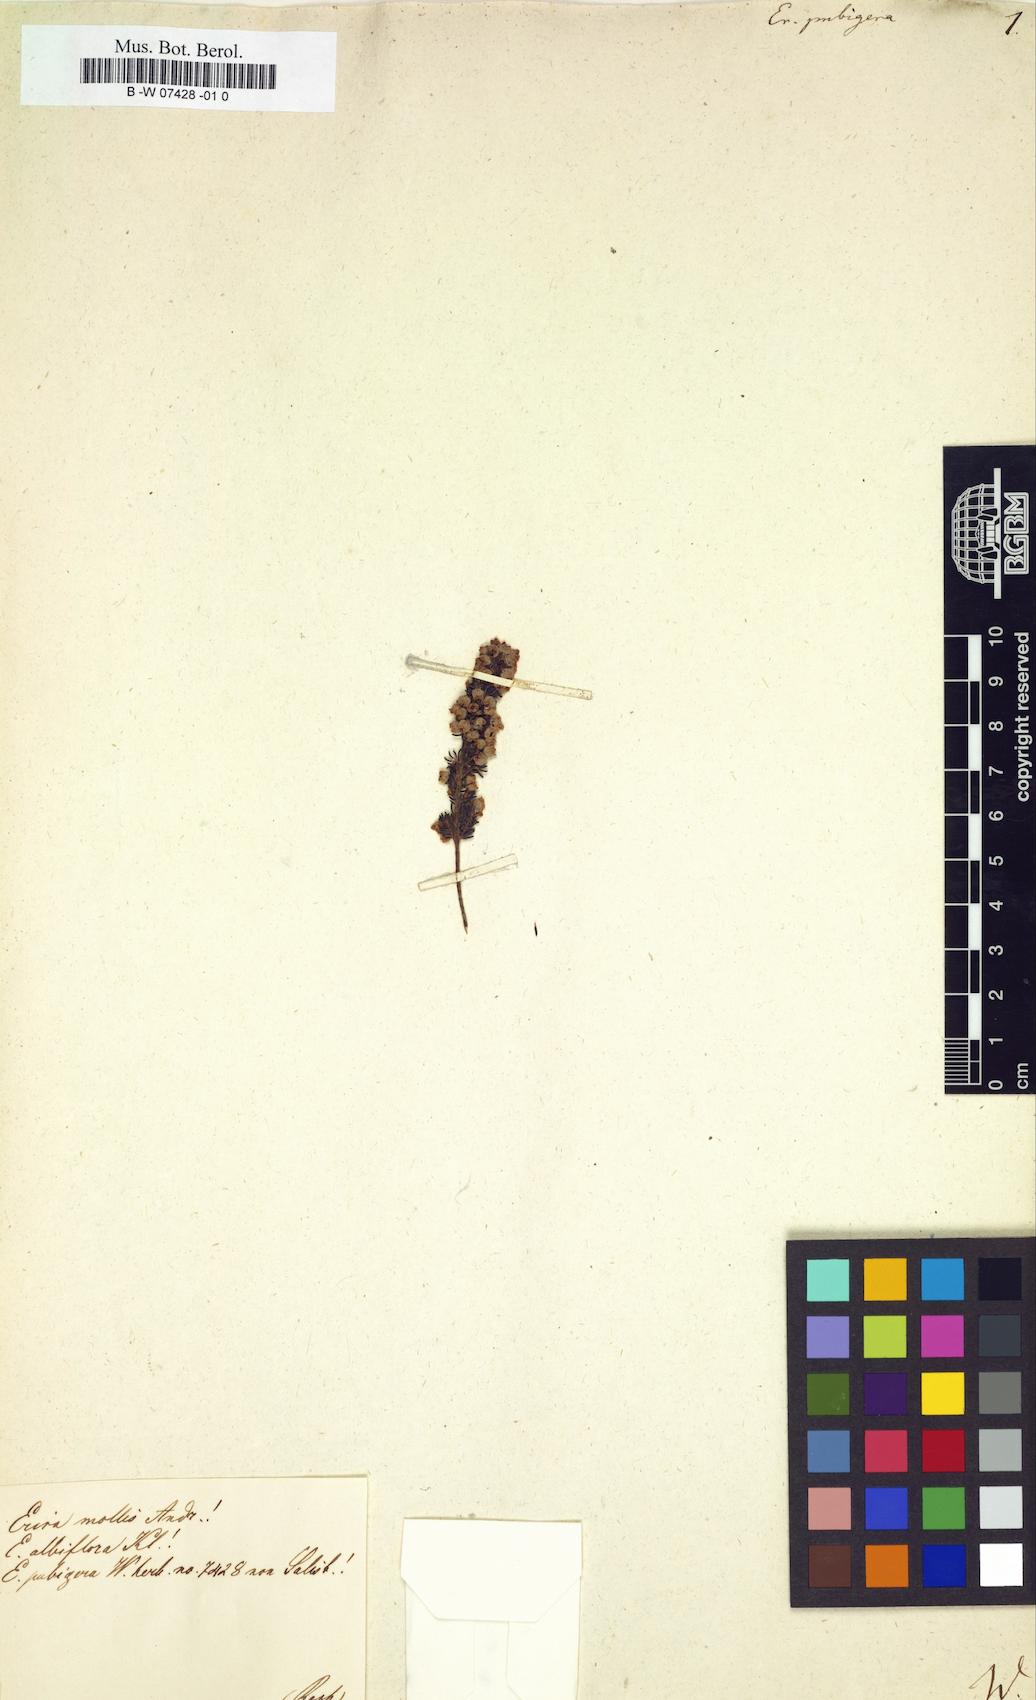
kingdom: Plantae
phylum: Tracheophyta
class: Magnoliopsida
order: Ericales
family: Ericaceae
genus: Erica
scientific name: Erica pubigera
